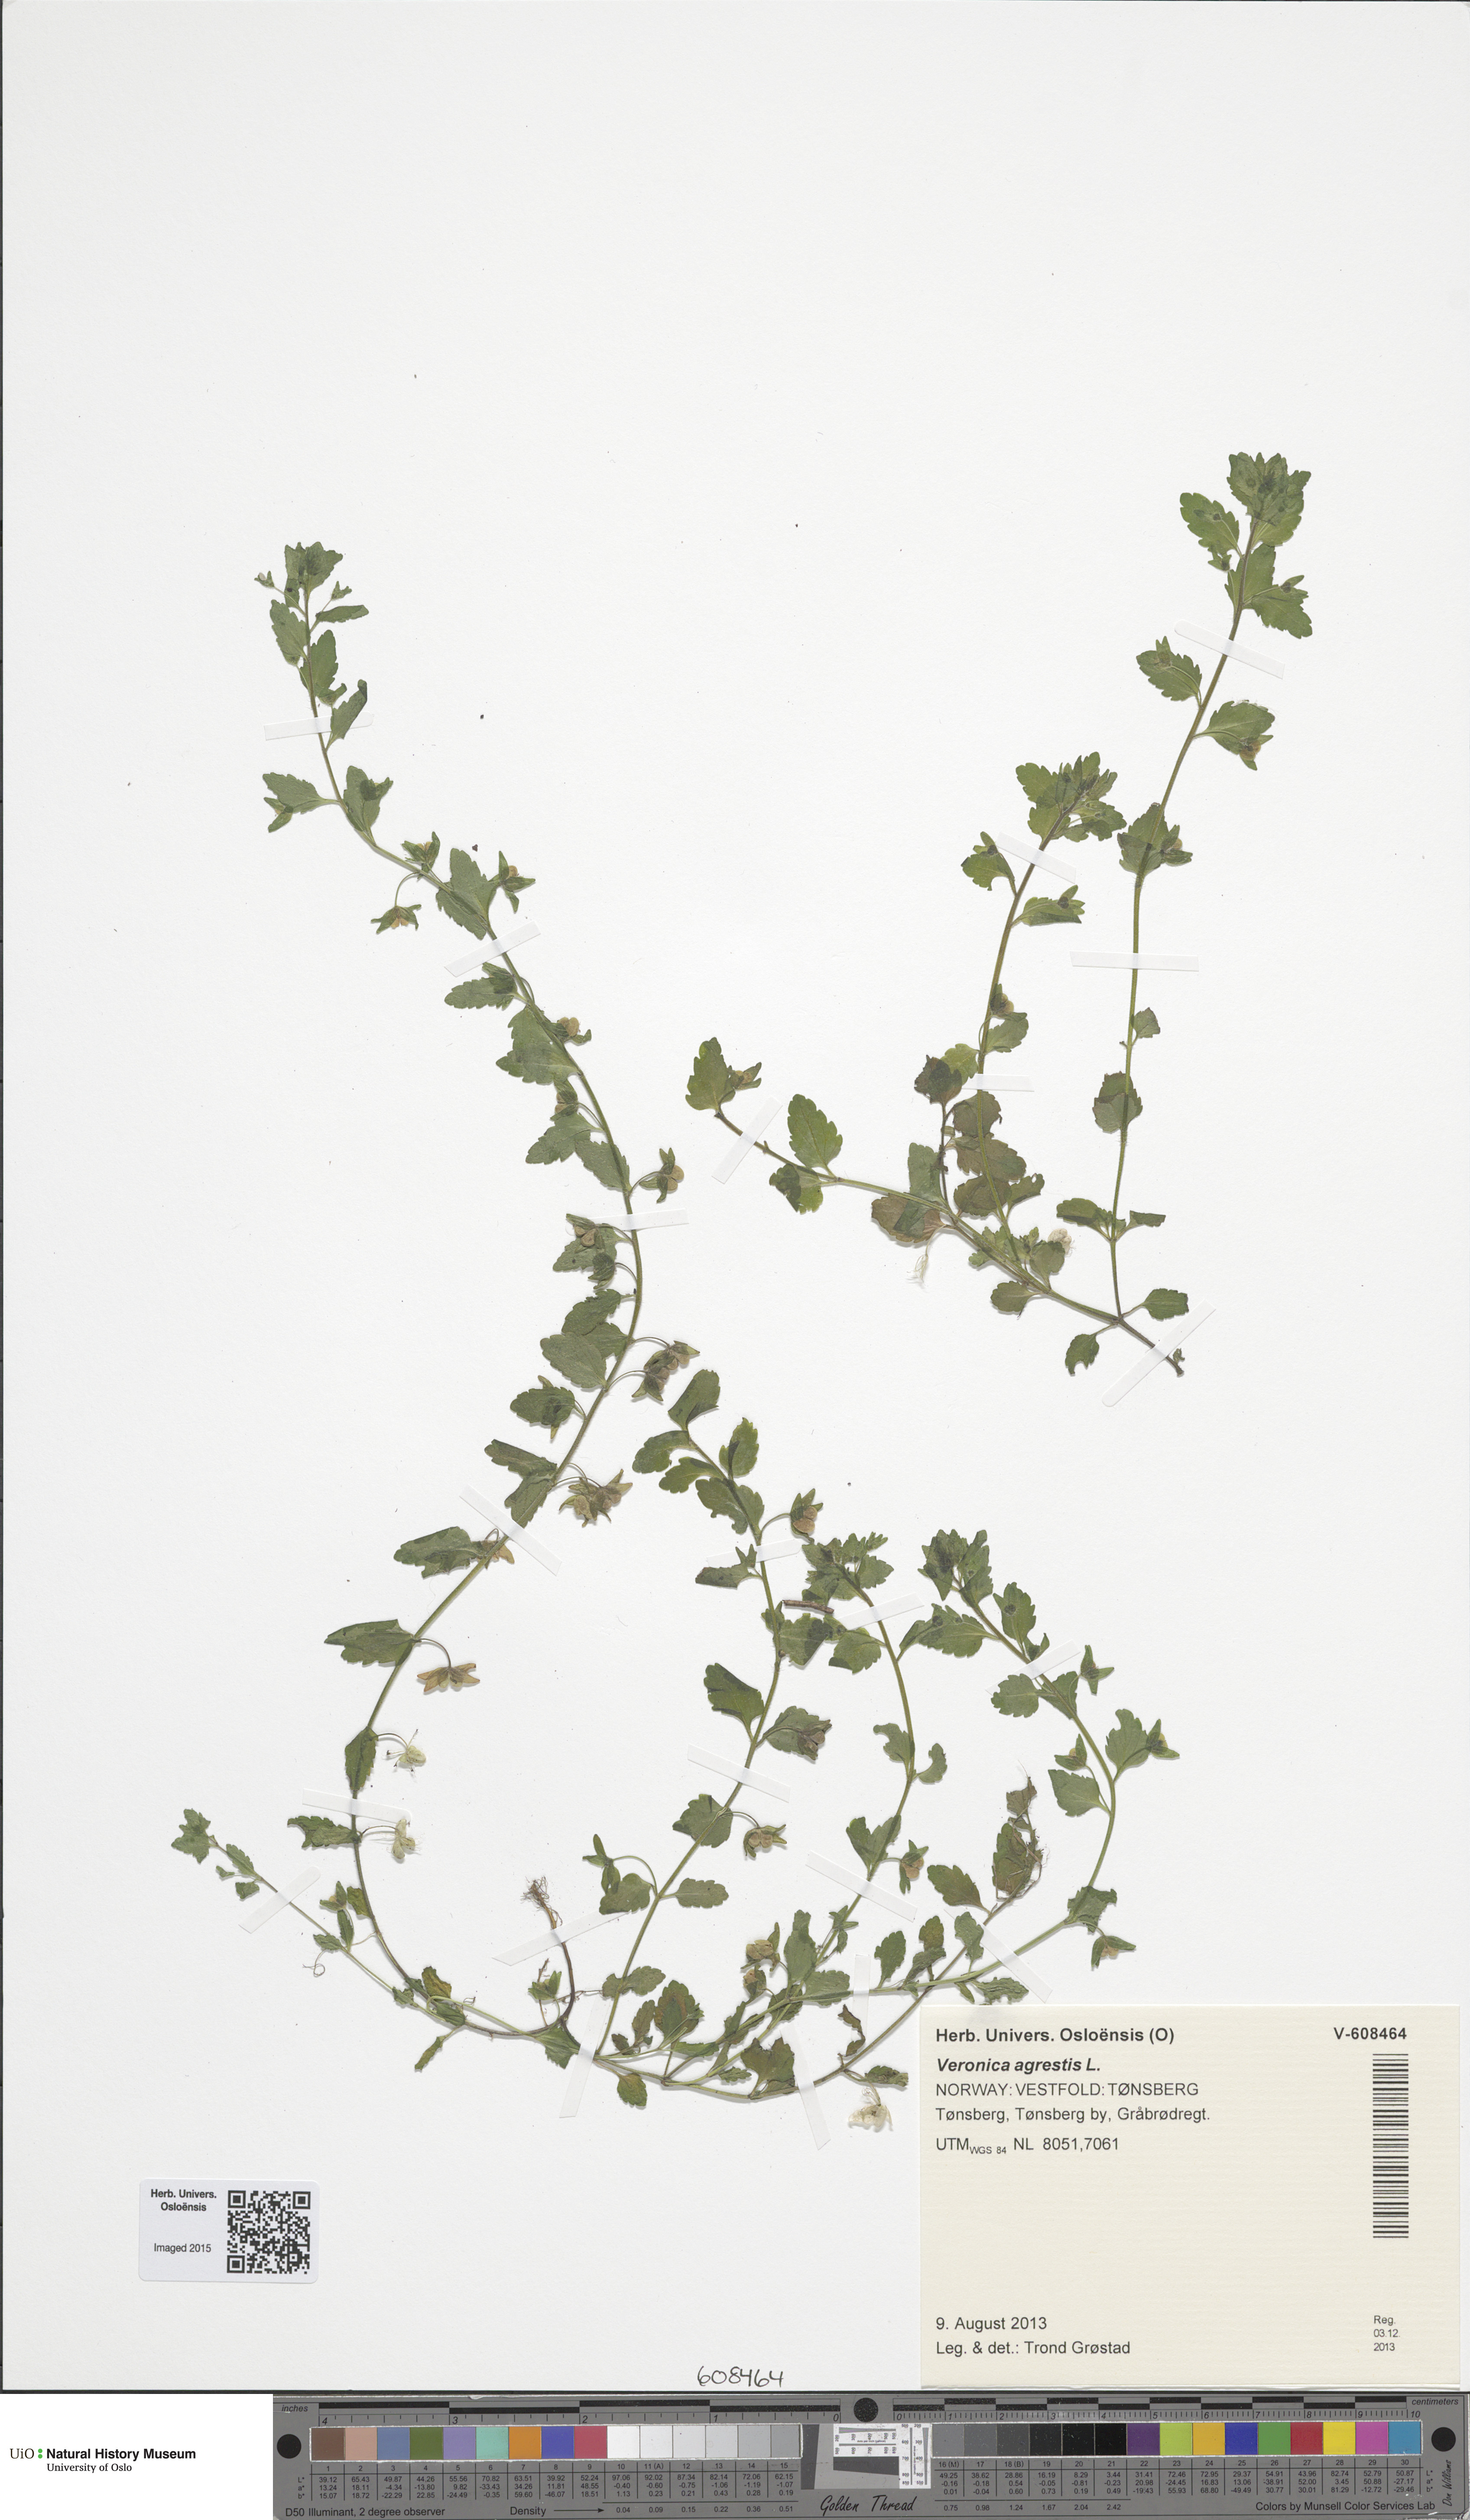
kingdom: Plantae
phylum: Tracheophyta
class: Magnoliopsida
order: Lamiales
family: Plantaginaceae
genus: Veronica
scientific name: Veronica agrestis
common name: Green field-speedwell
